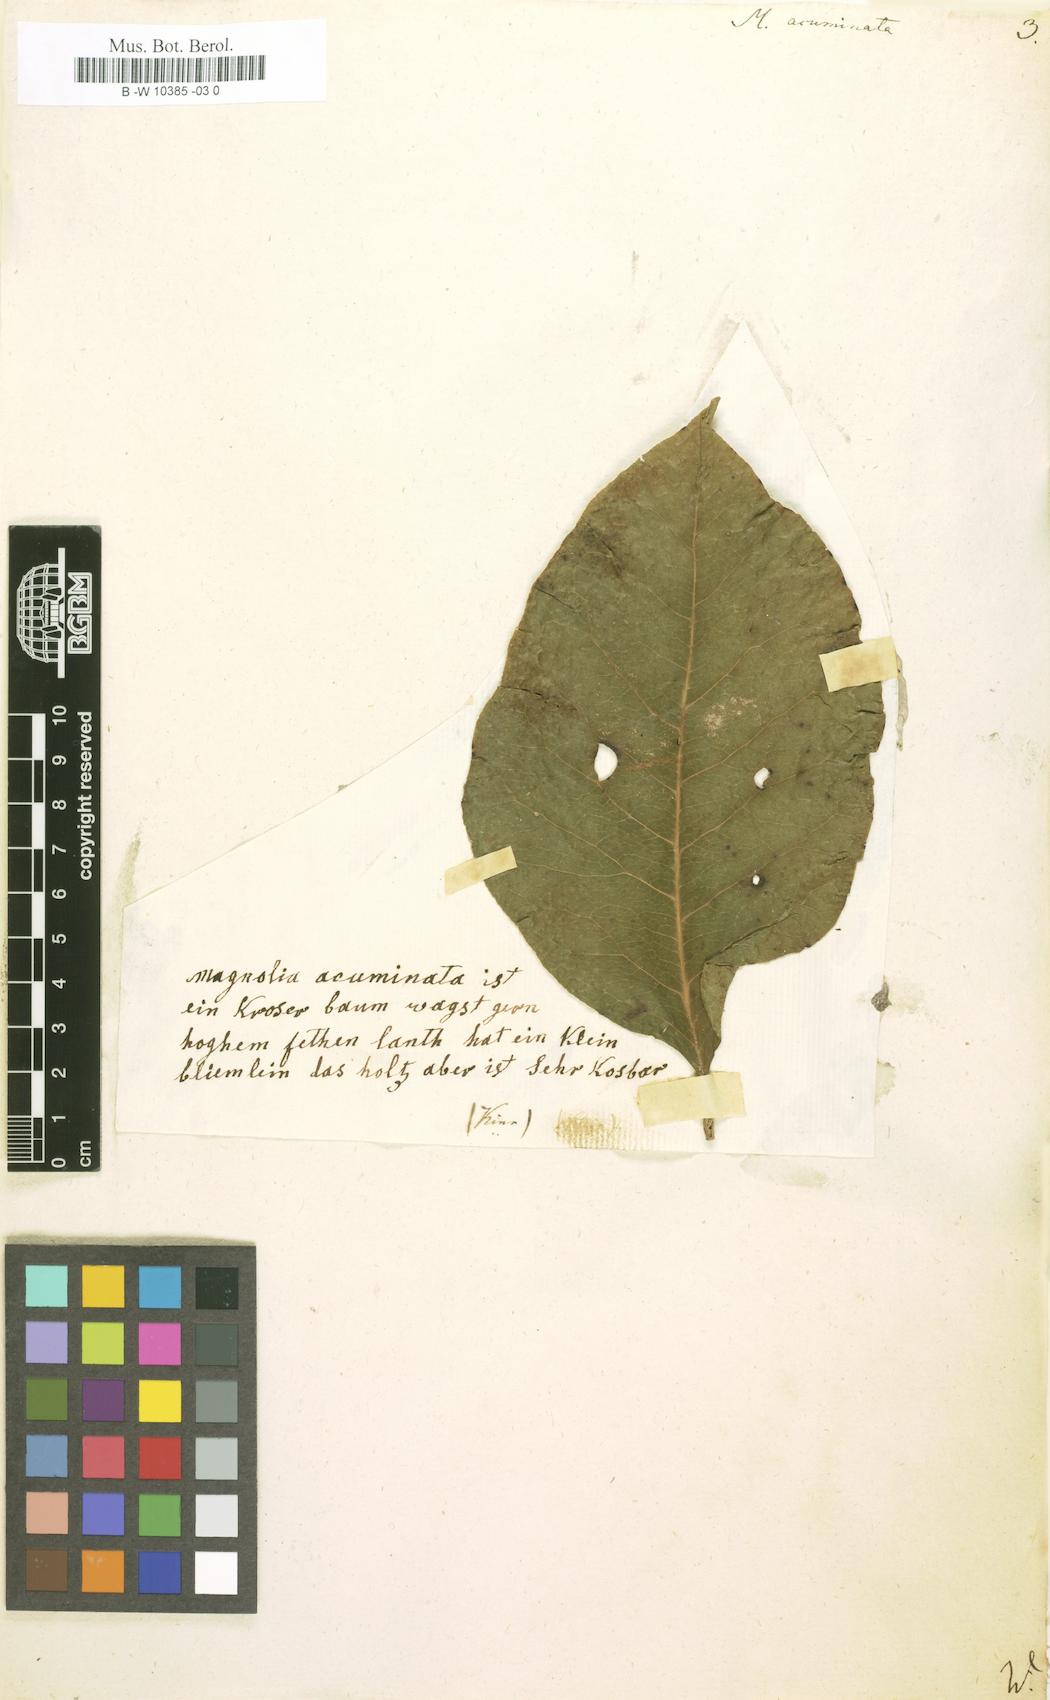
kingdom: Plantae
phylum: Tracheophyta
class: Magnoliopsida
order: Magnoliales
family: Magnoliaceae
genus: Magnolia
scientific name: Magnolia acuminata
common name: Cucumber magnolia
